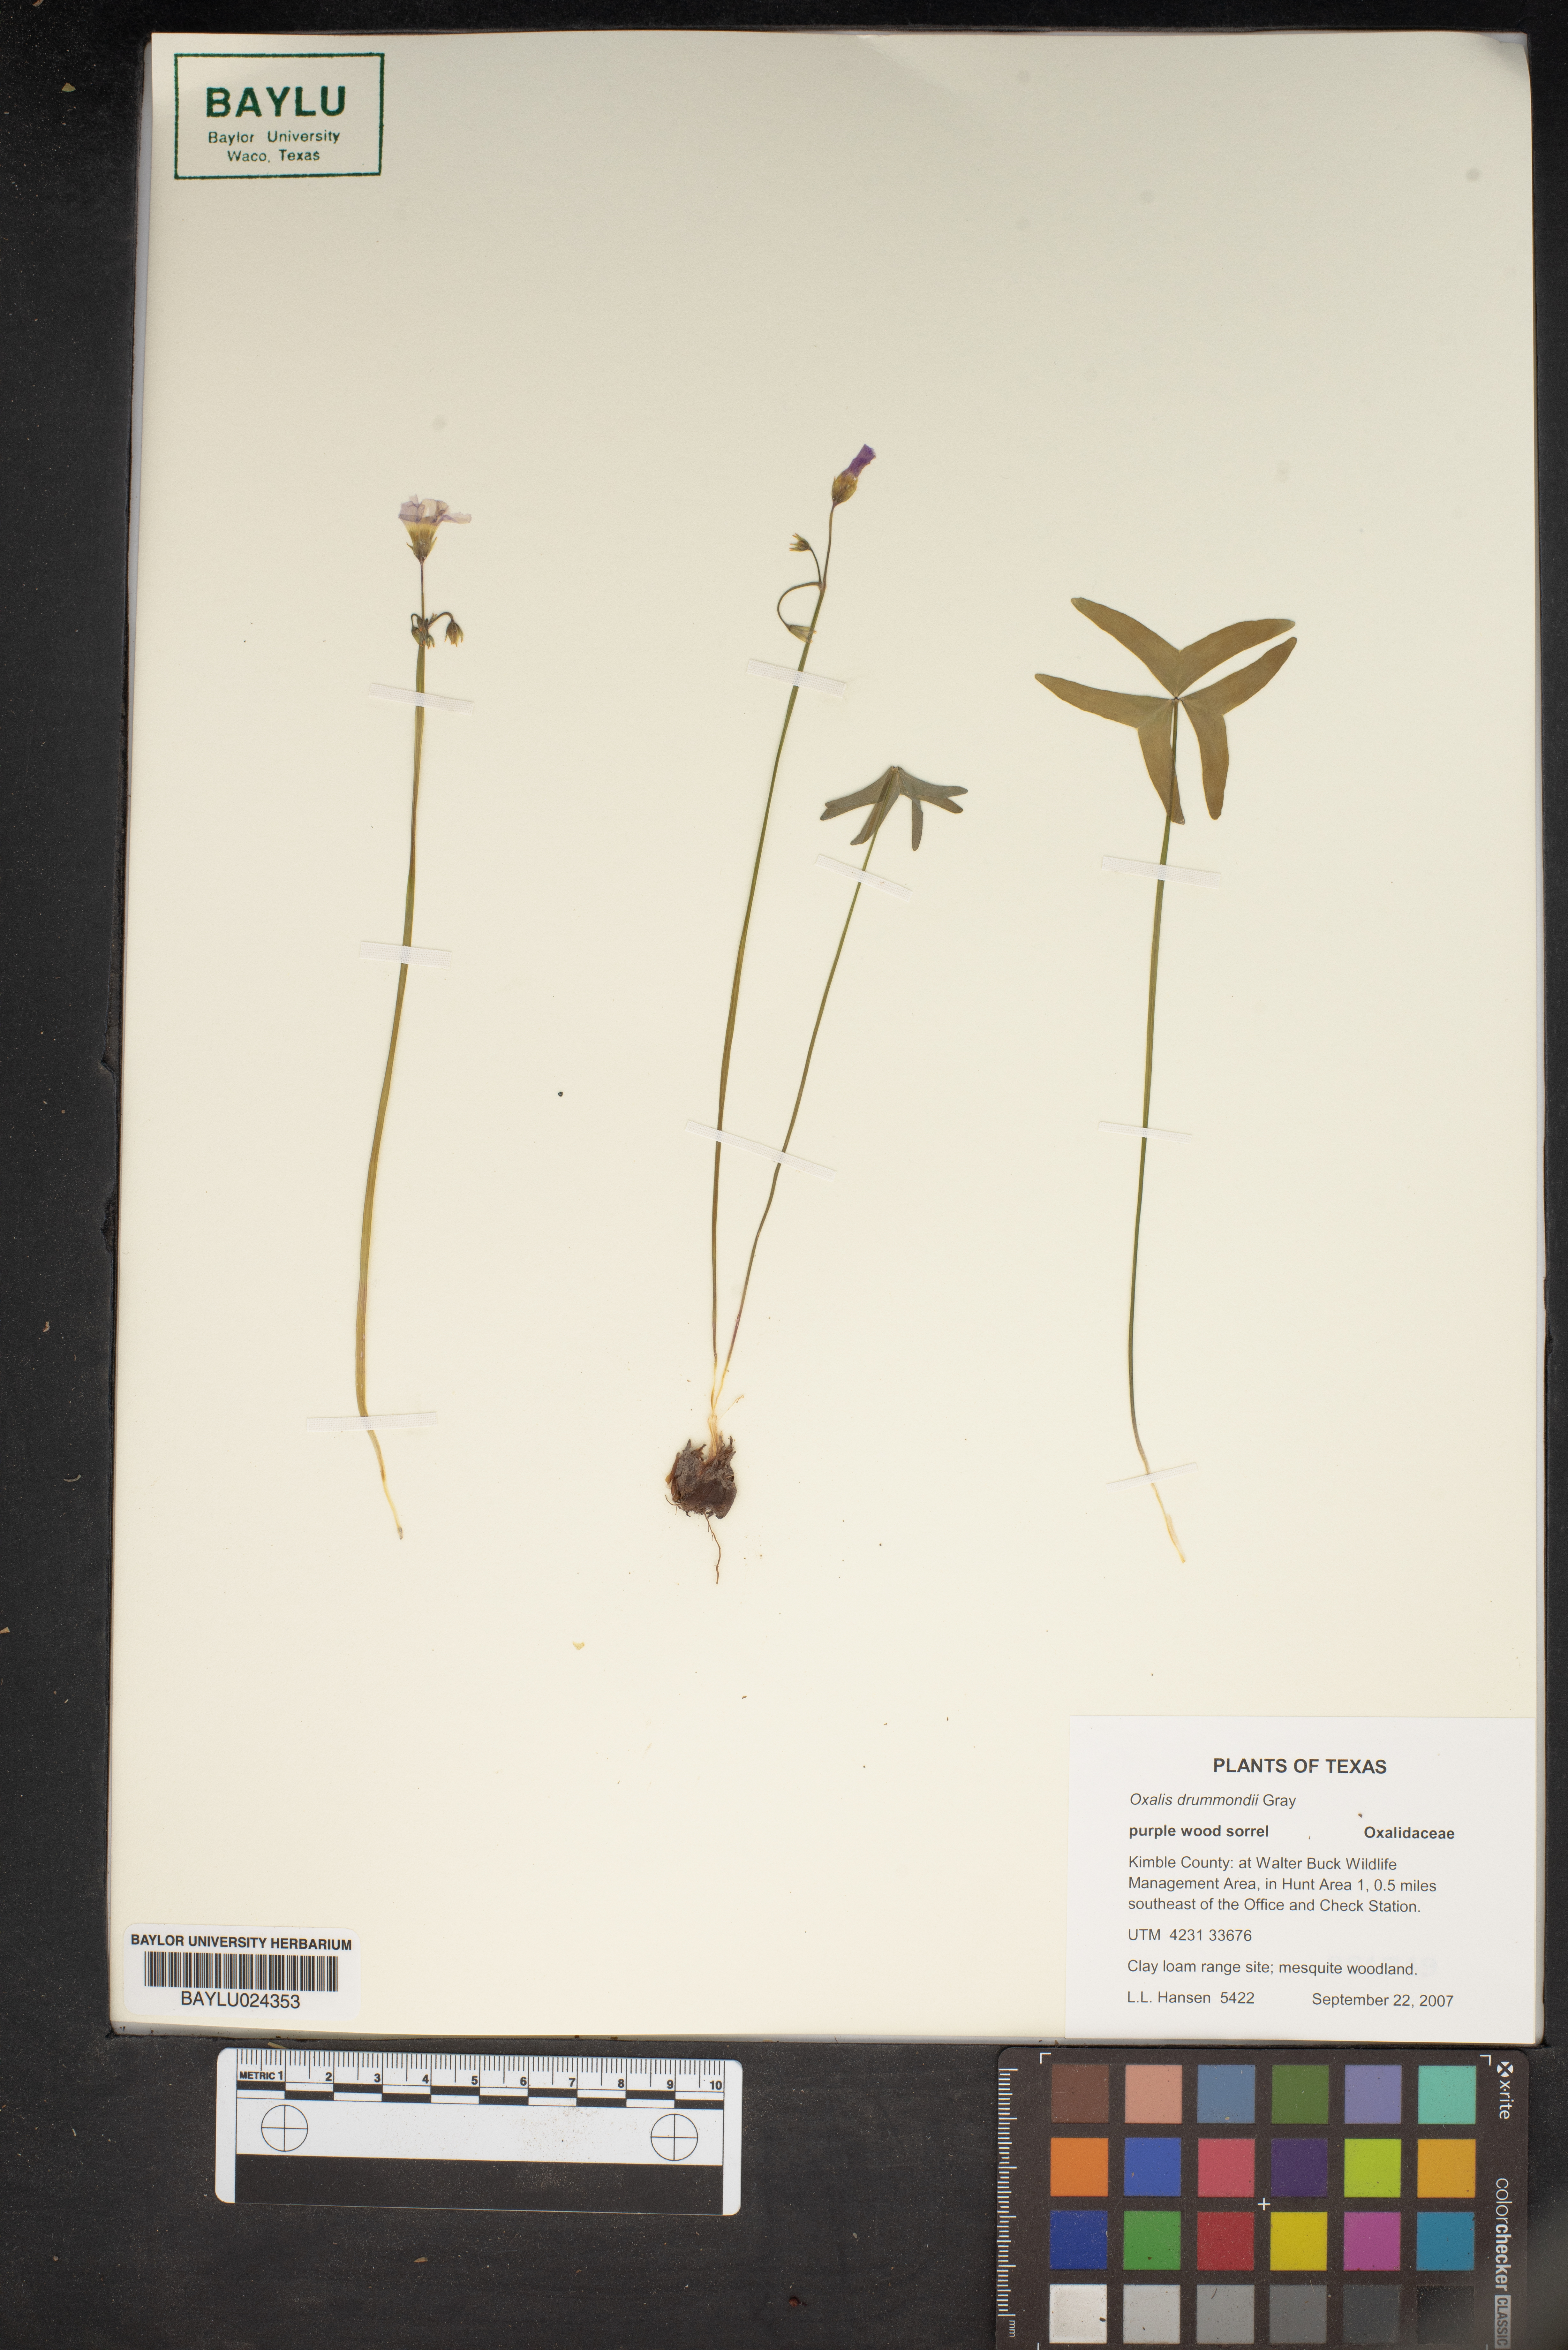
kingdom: Plantae
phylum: Tracheophyta
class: Magnoliopsida
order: Oxalidales
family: Oxalidaceae
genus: Oxalis
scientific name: Oxalis drummondii
